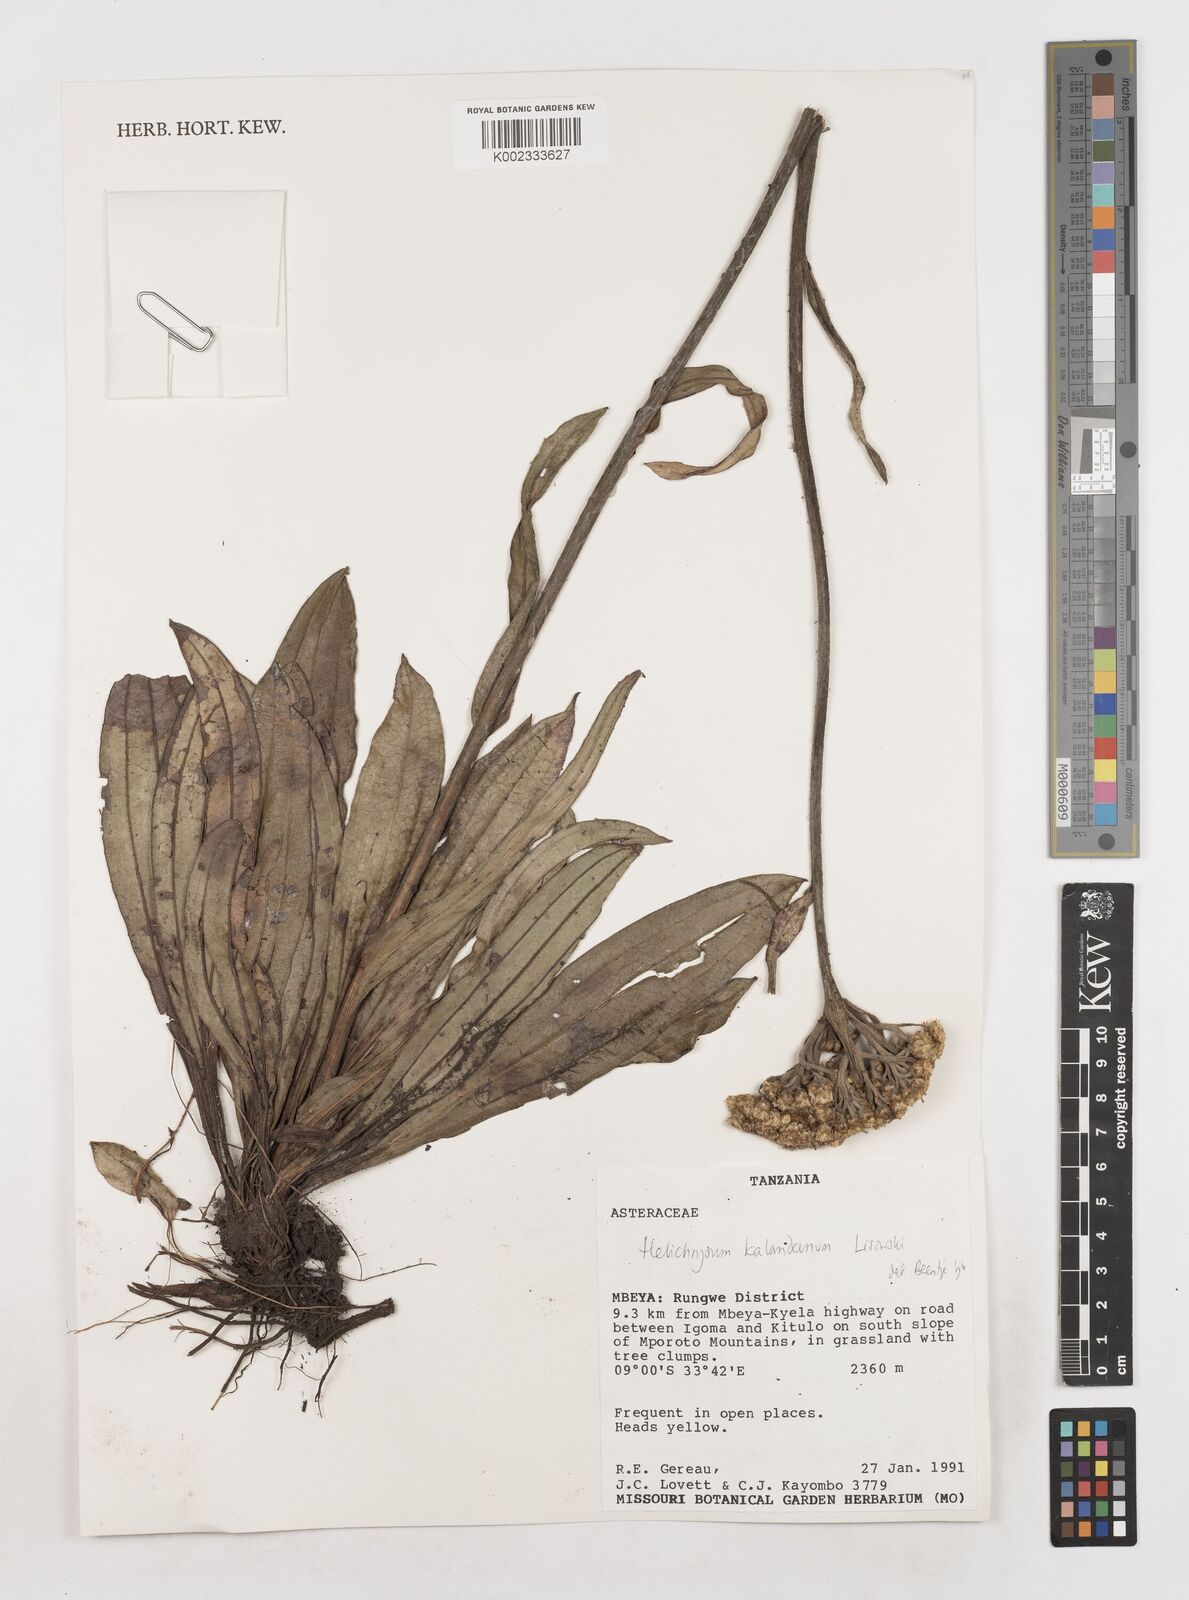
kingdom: Plantae
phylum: Tracheophyta
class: Magnoliopsida
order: Asterales
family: Asteraceae
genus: Helichrysum
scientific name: Helichrysum kalandanum
